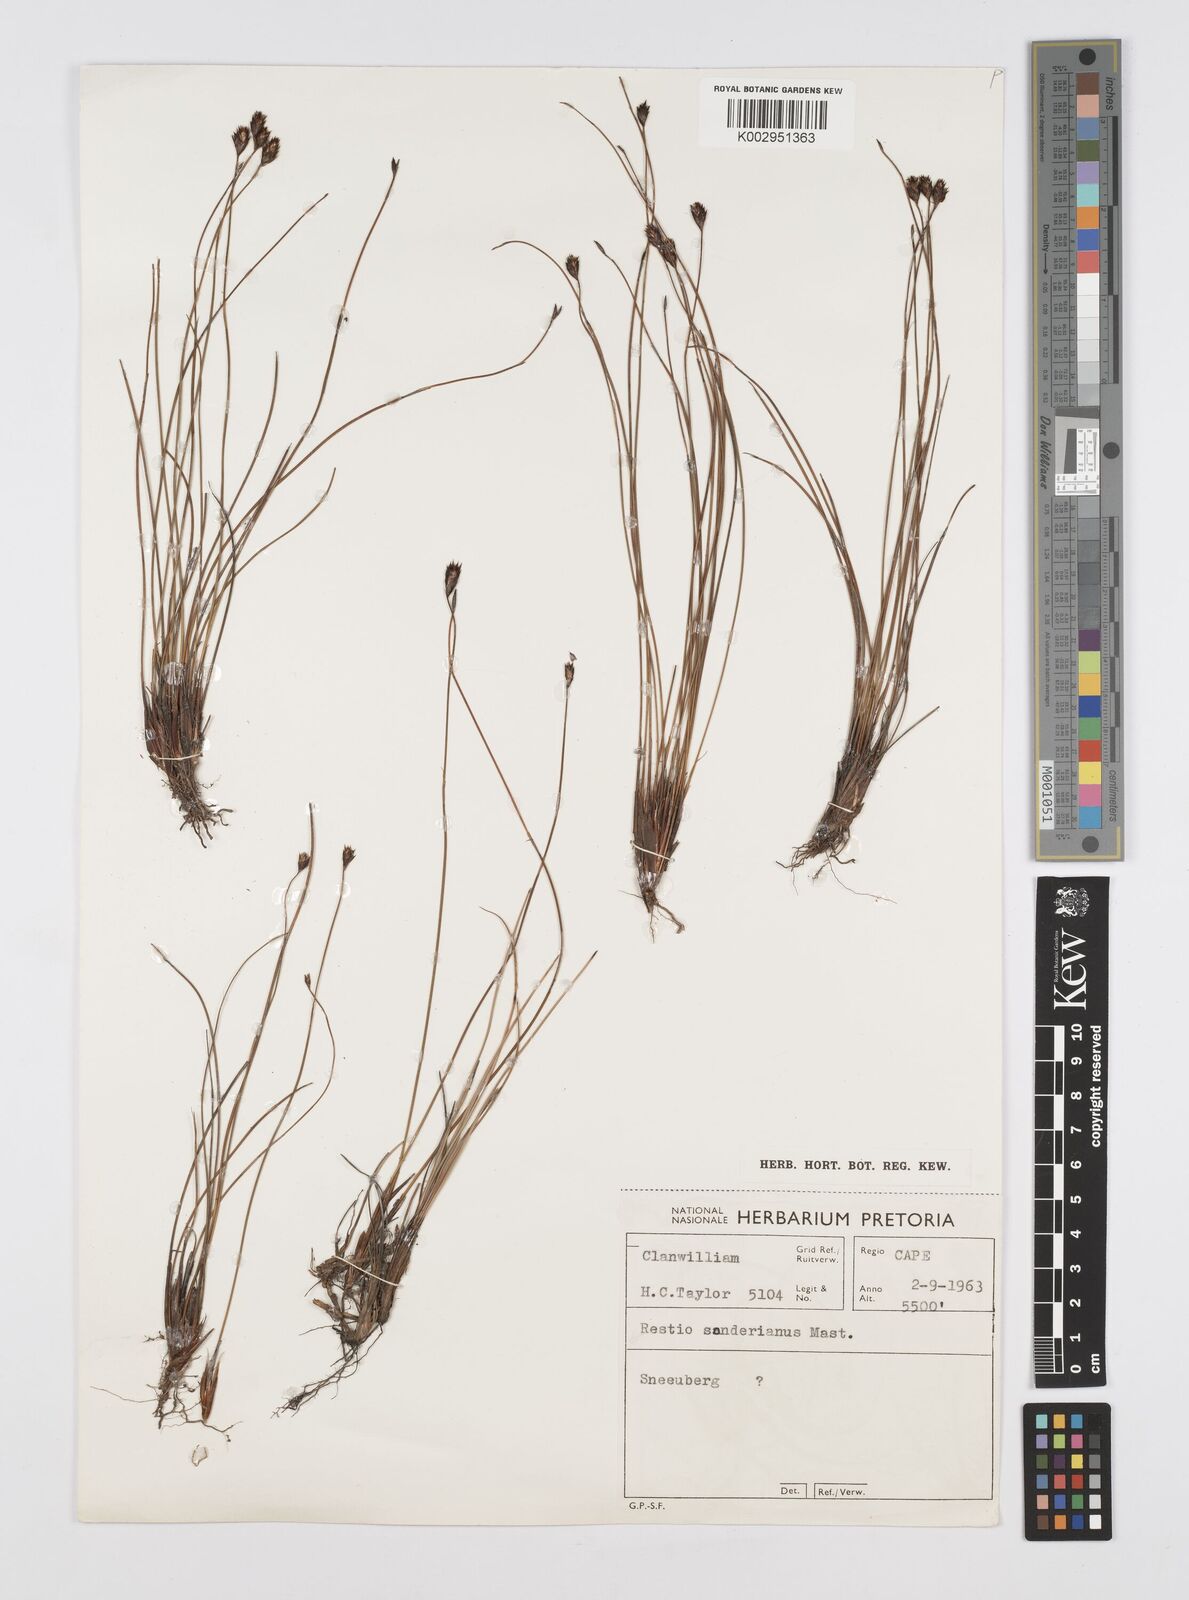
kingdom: Plantae
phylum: Tracheophyta
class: Liliopsida
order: Poales
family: Restionaceae
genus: Restio
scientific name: Restio pedicellatus
